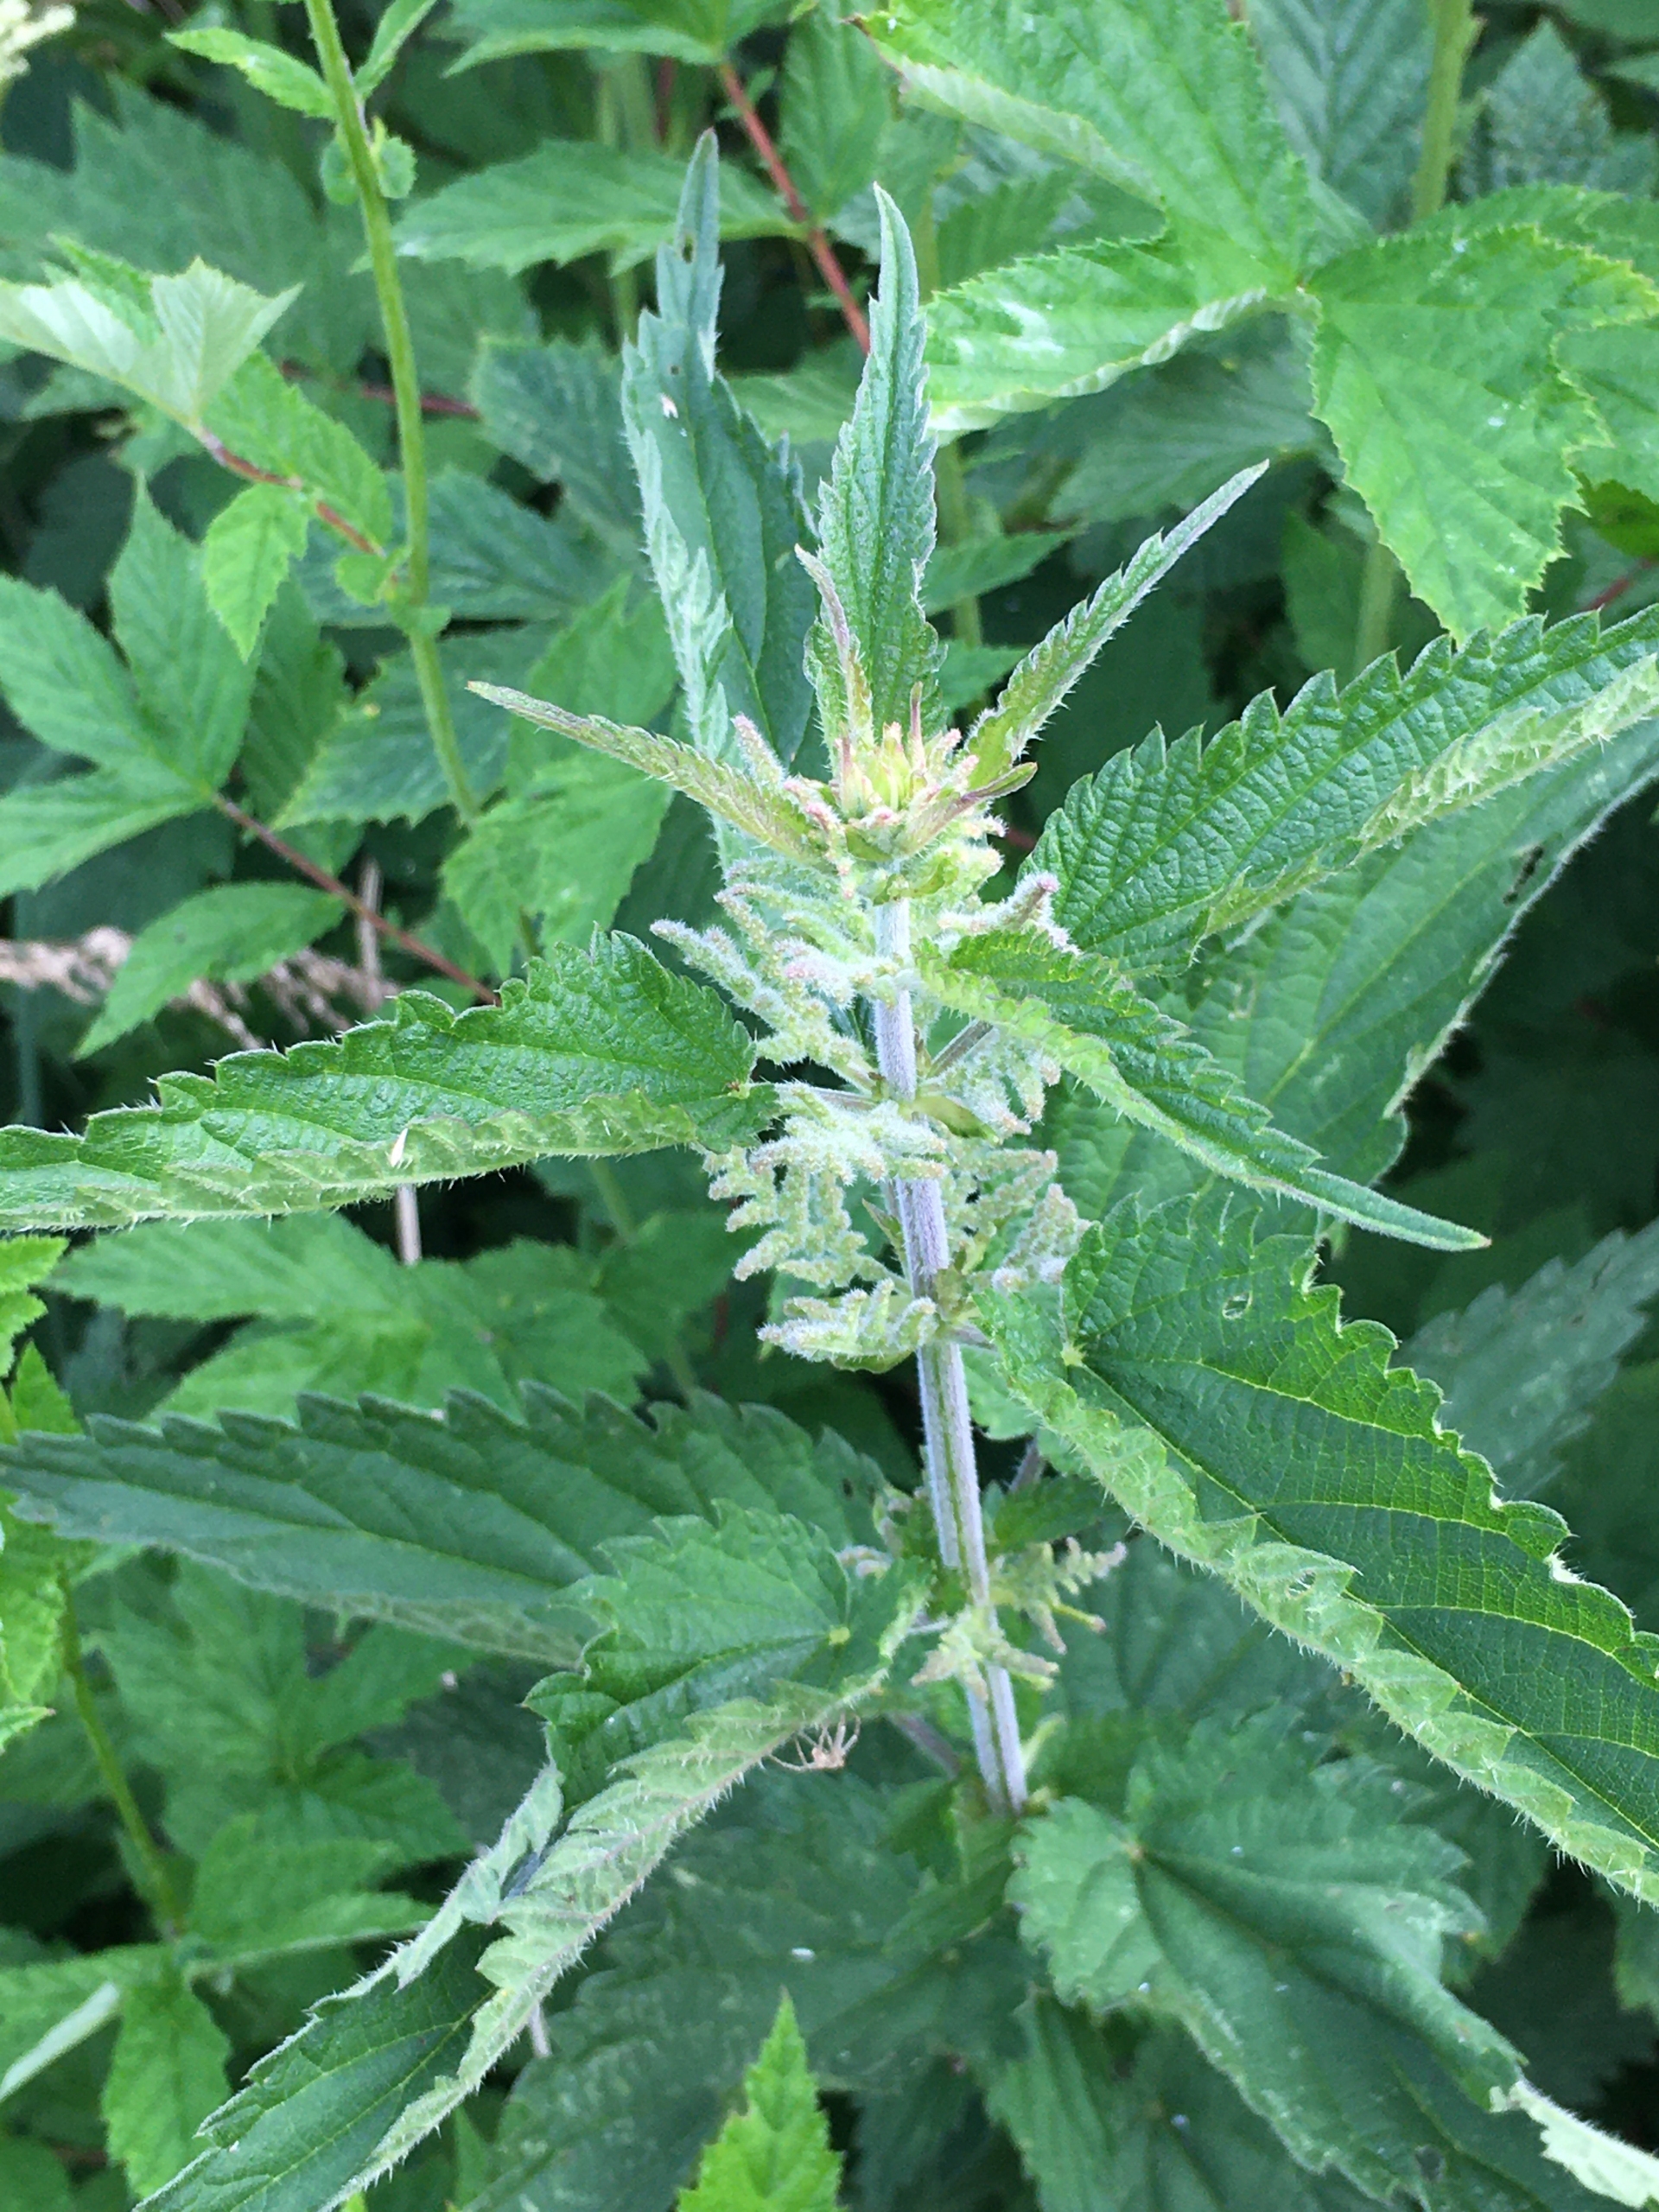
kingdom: Plantae
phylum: Tracheophyta
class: Magnoliopsida
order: Rosales
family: Urticaceae
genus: Urtica
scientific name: Urtica dioica
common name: Stor nælde
